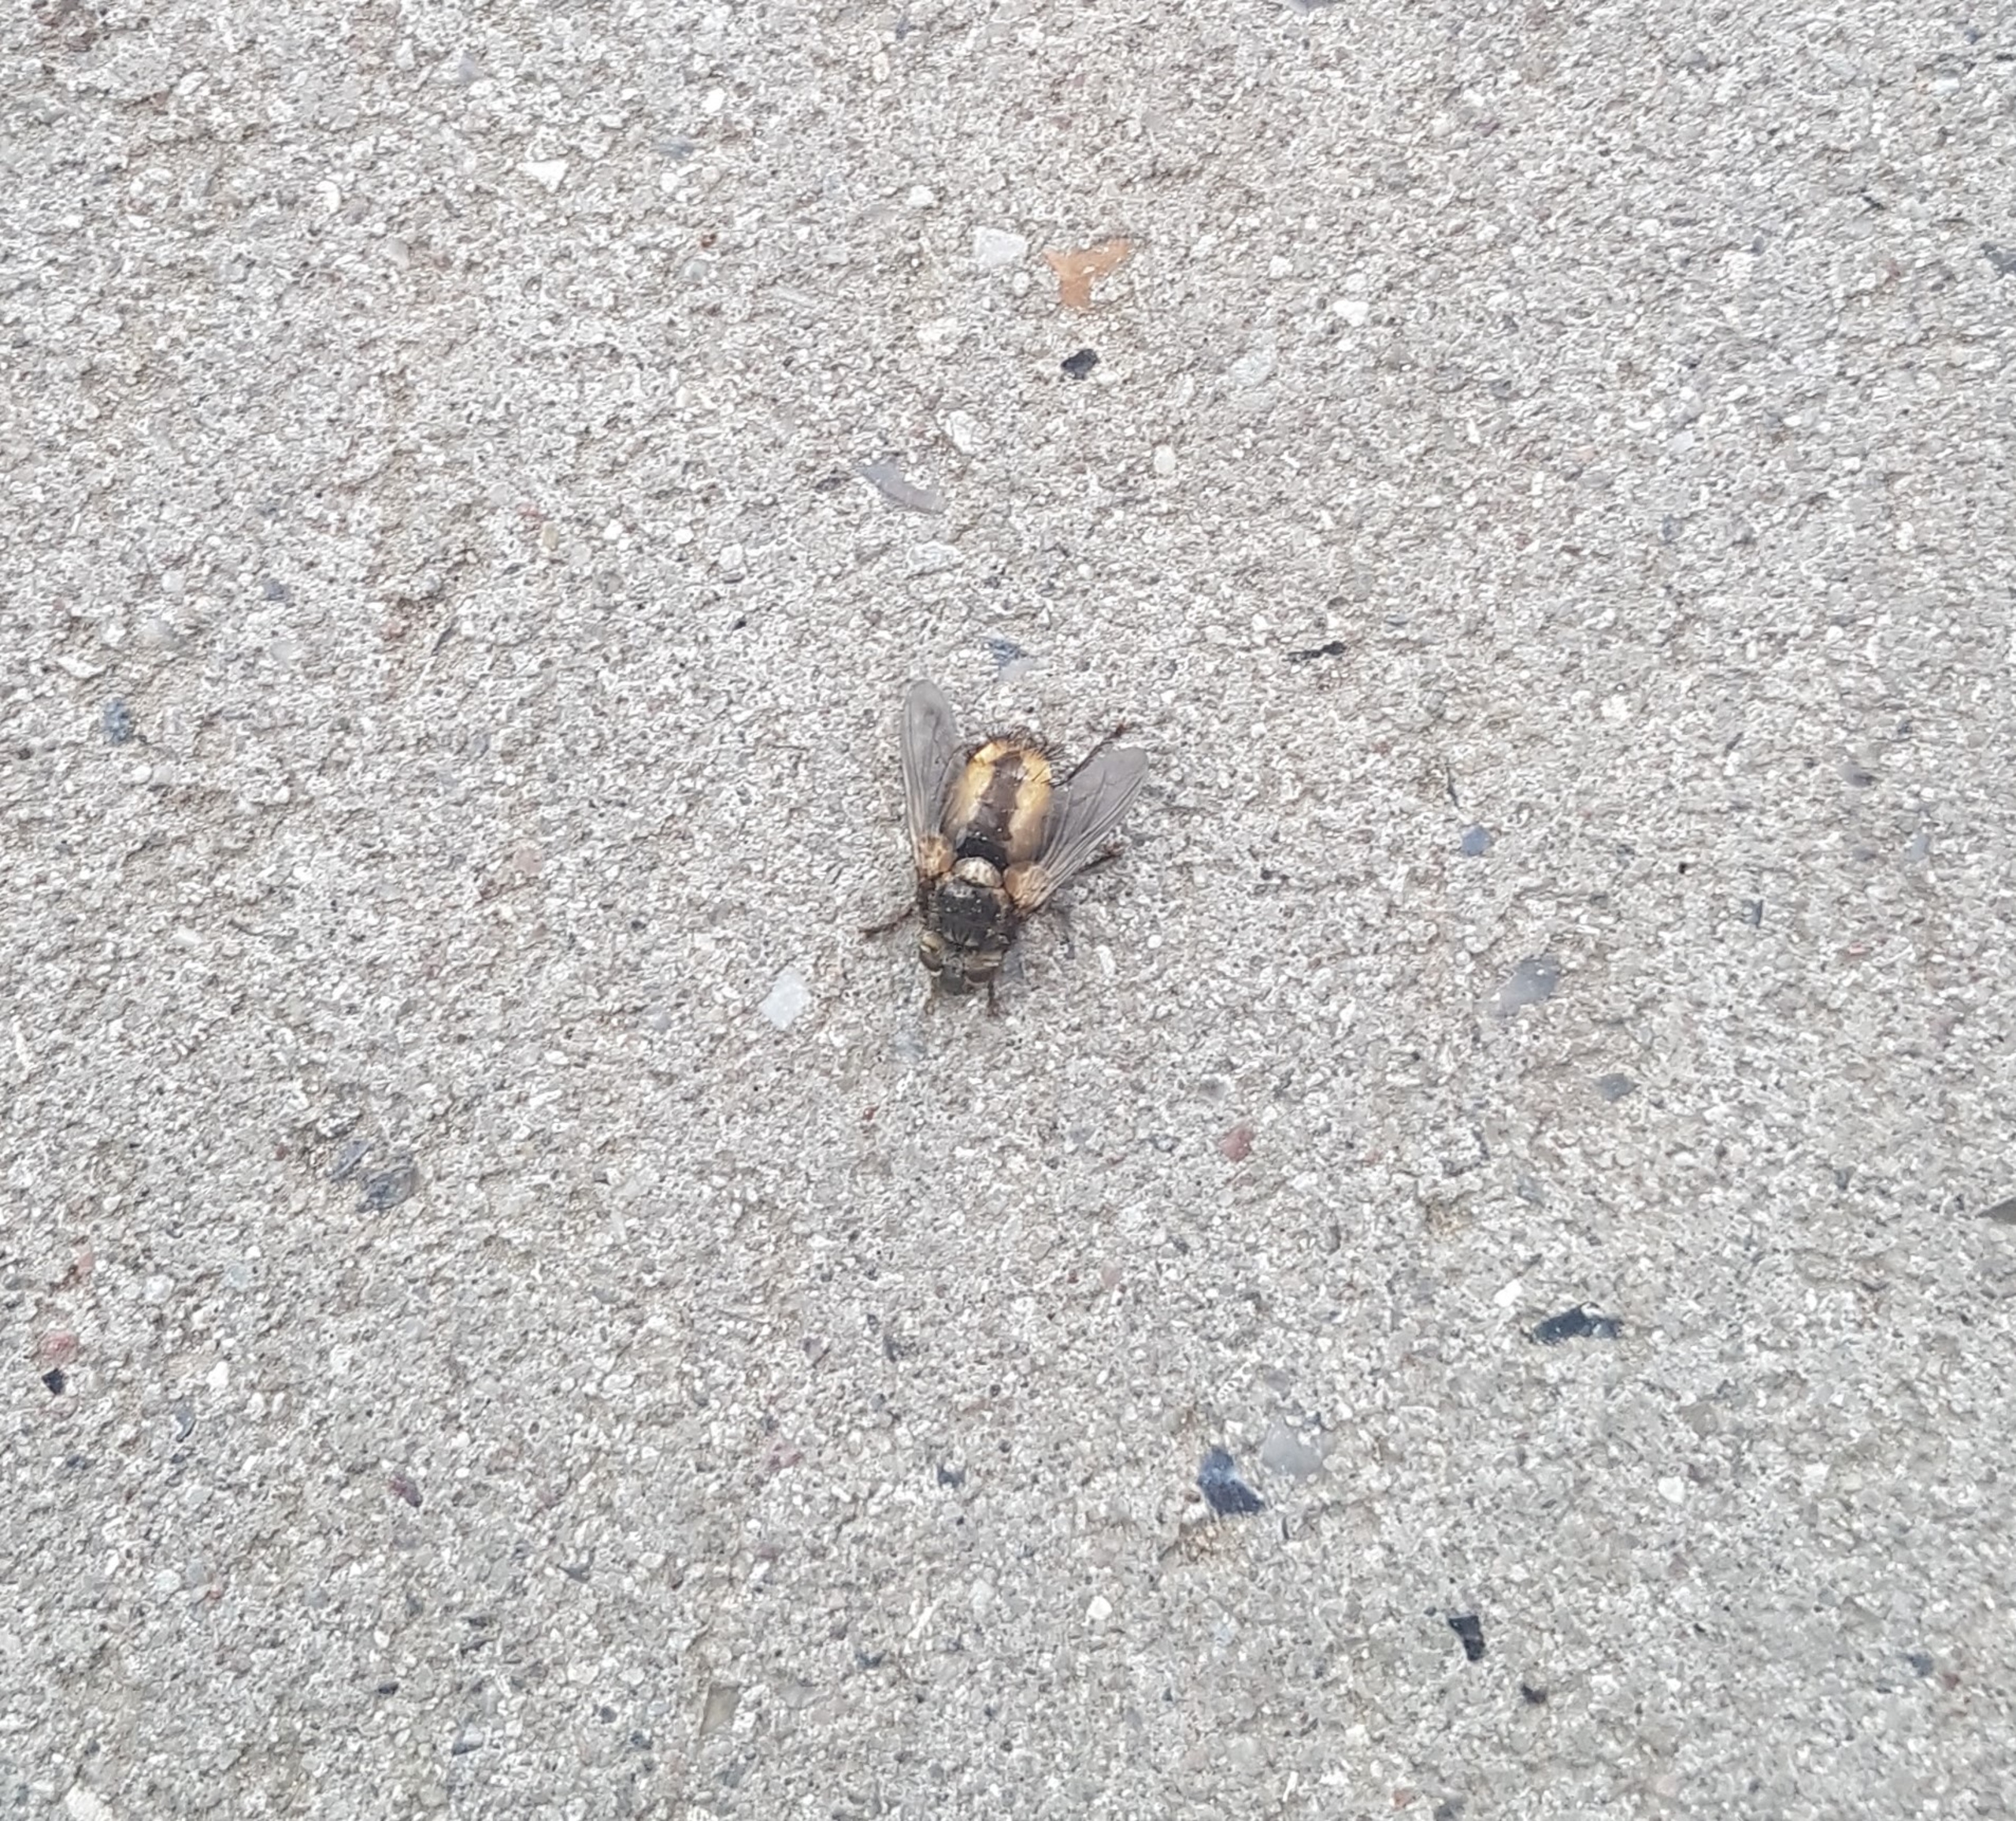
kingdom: Animalia
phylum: Arthropoda
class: Insecta
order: Diptera
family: Tachinidae
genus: Tachina
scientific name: Tachina fera
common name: Mellemfluen oskar
